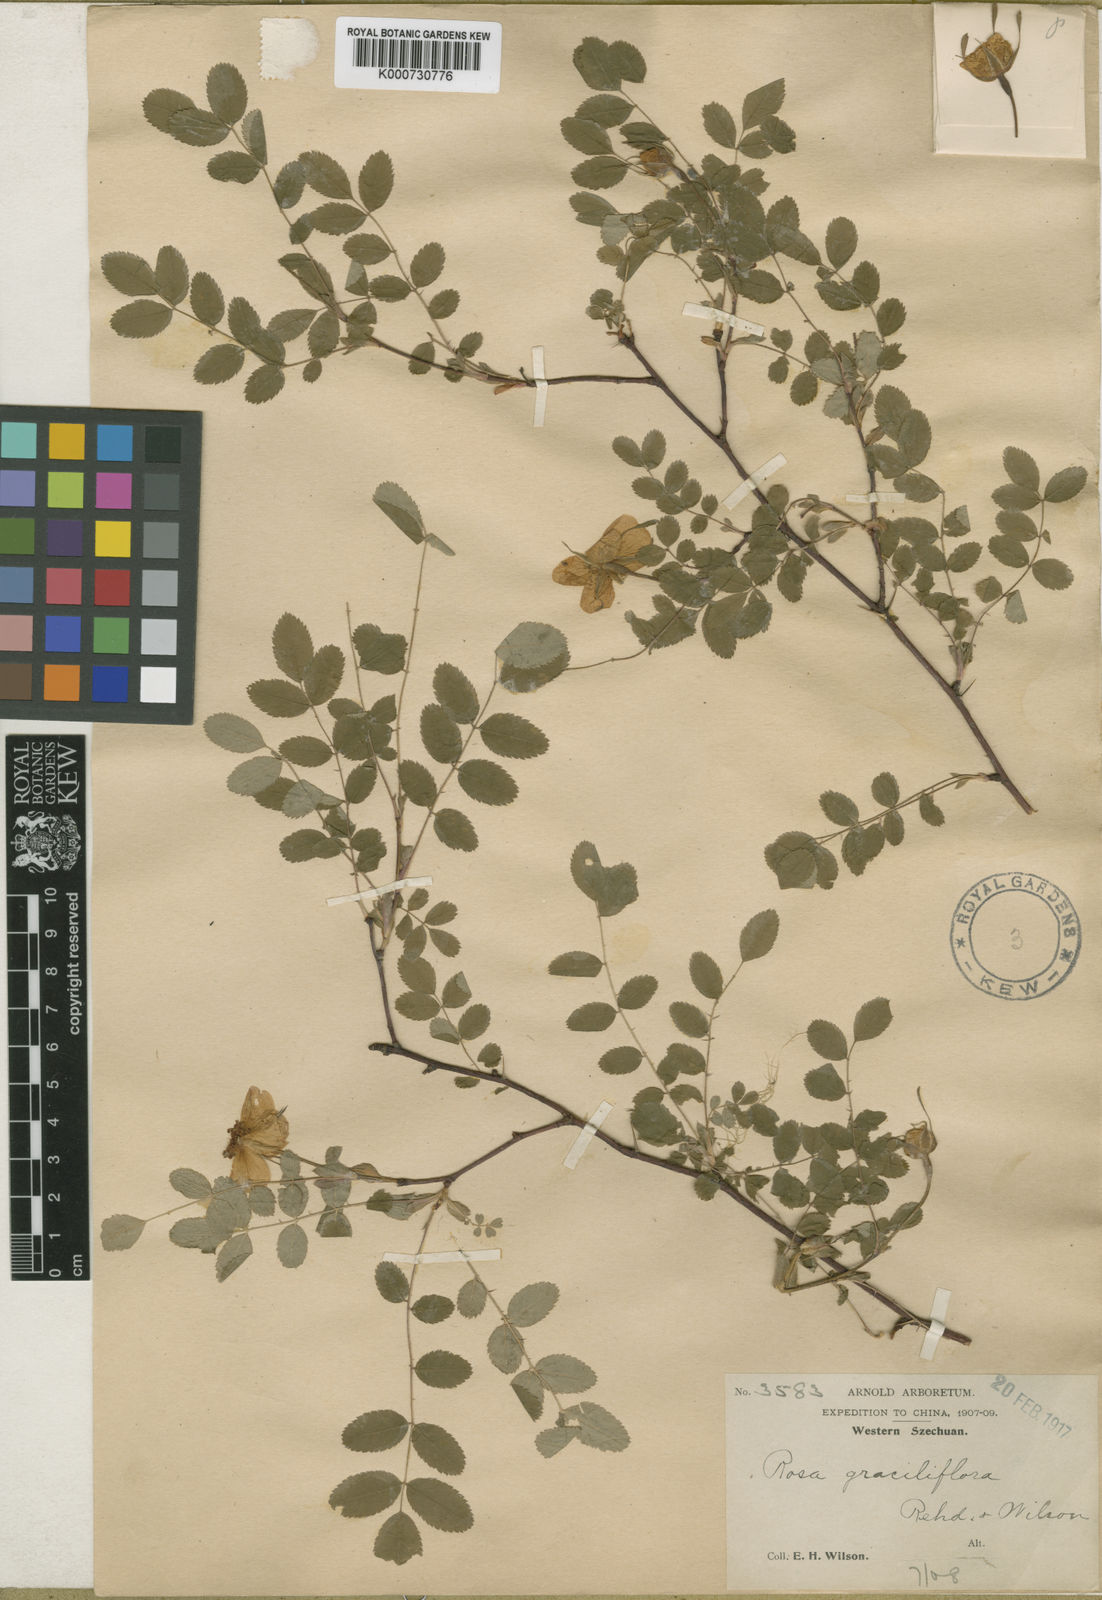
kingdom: Plantae
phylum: Tracheophyta
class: Magnoliopsida
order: Rosales
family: Rosaceae
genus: Rosa
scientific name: Rosa graciliflora
